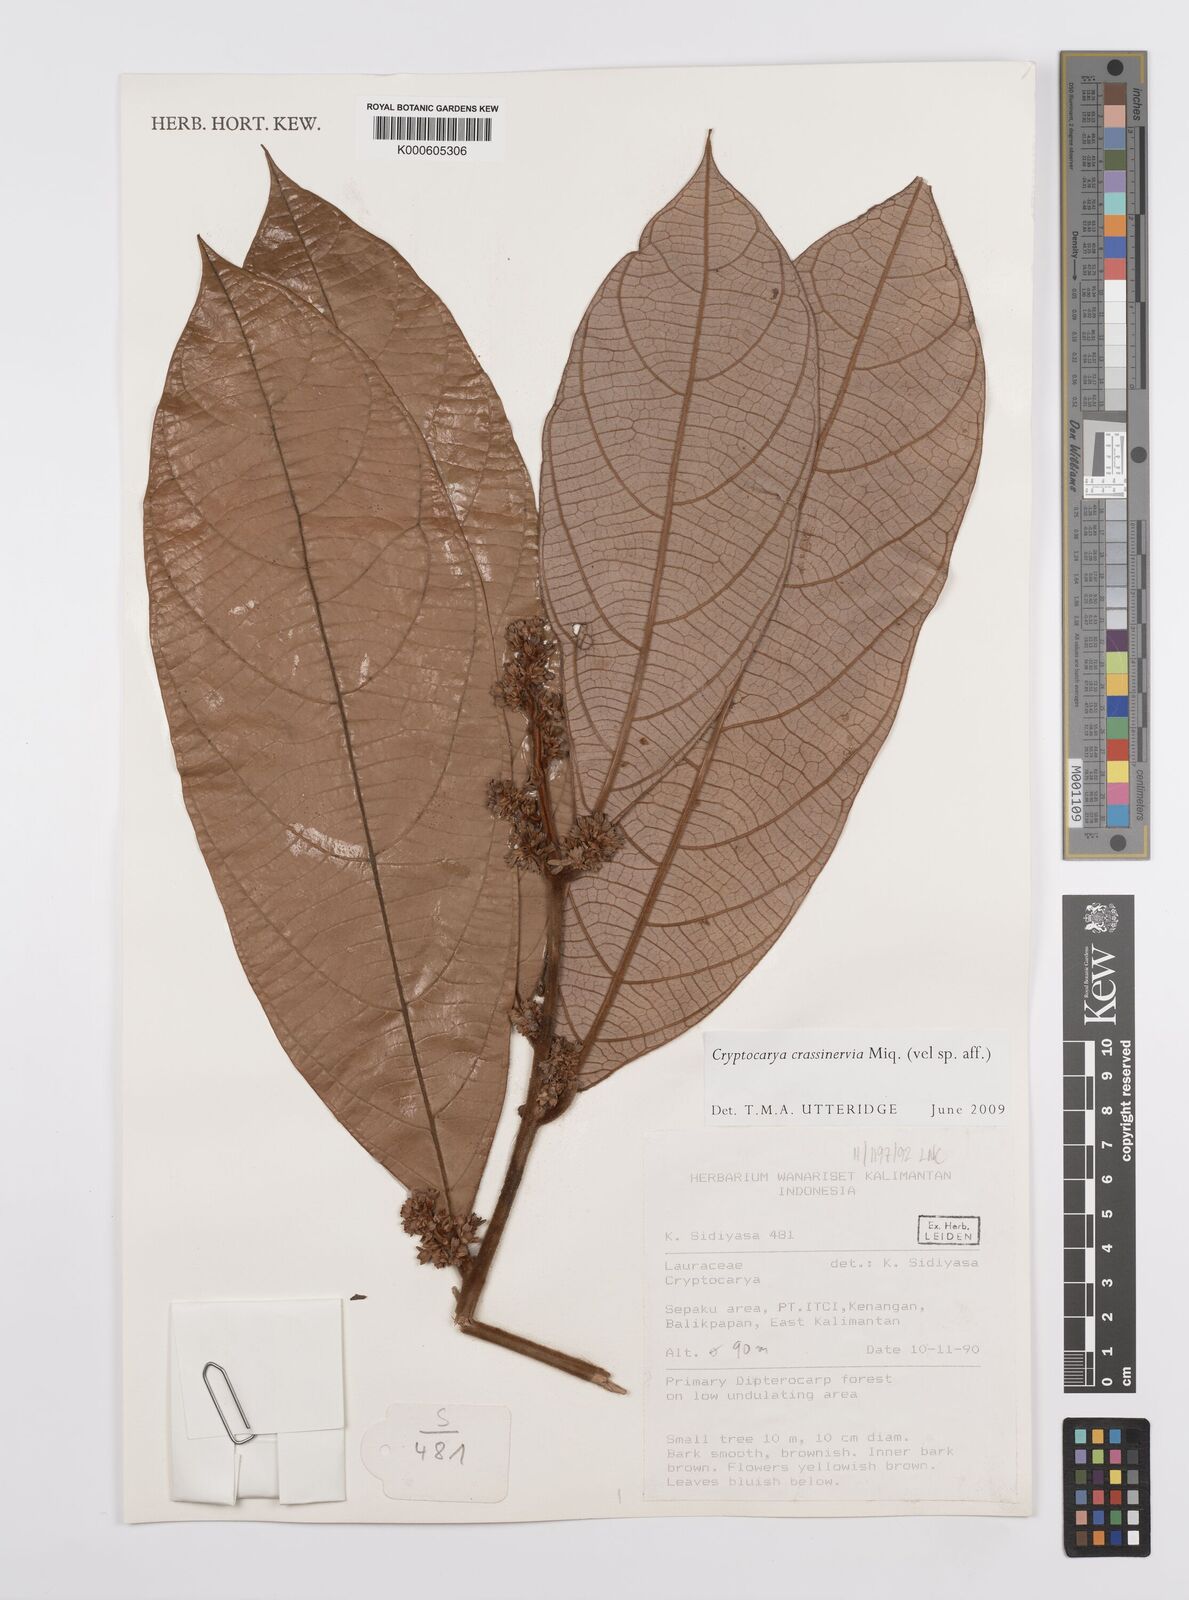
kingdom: Plantae
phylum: Tracheophyta
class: Magnoliopsida
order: Laurales
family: Lauraceae
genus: Cryptocarya
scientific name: Cryptocarya diversifolia
